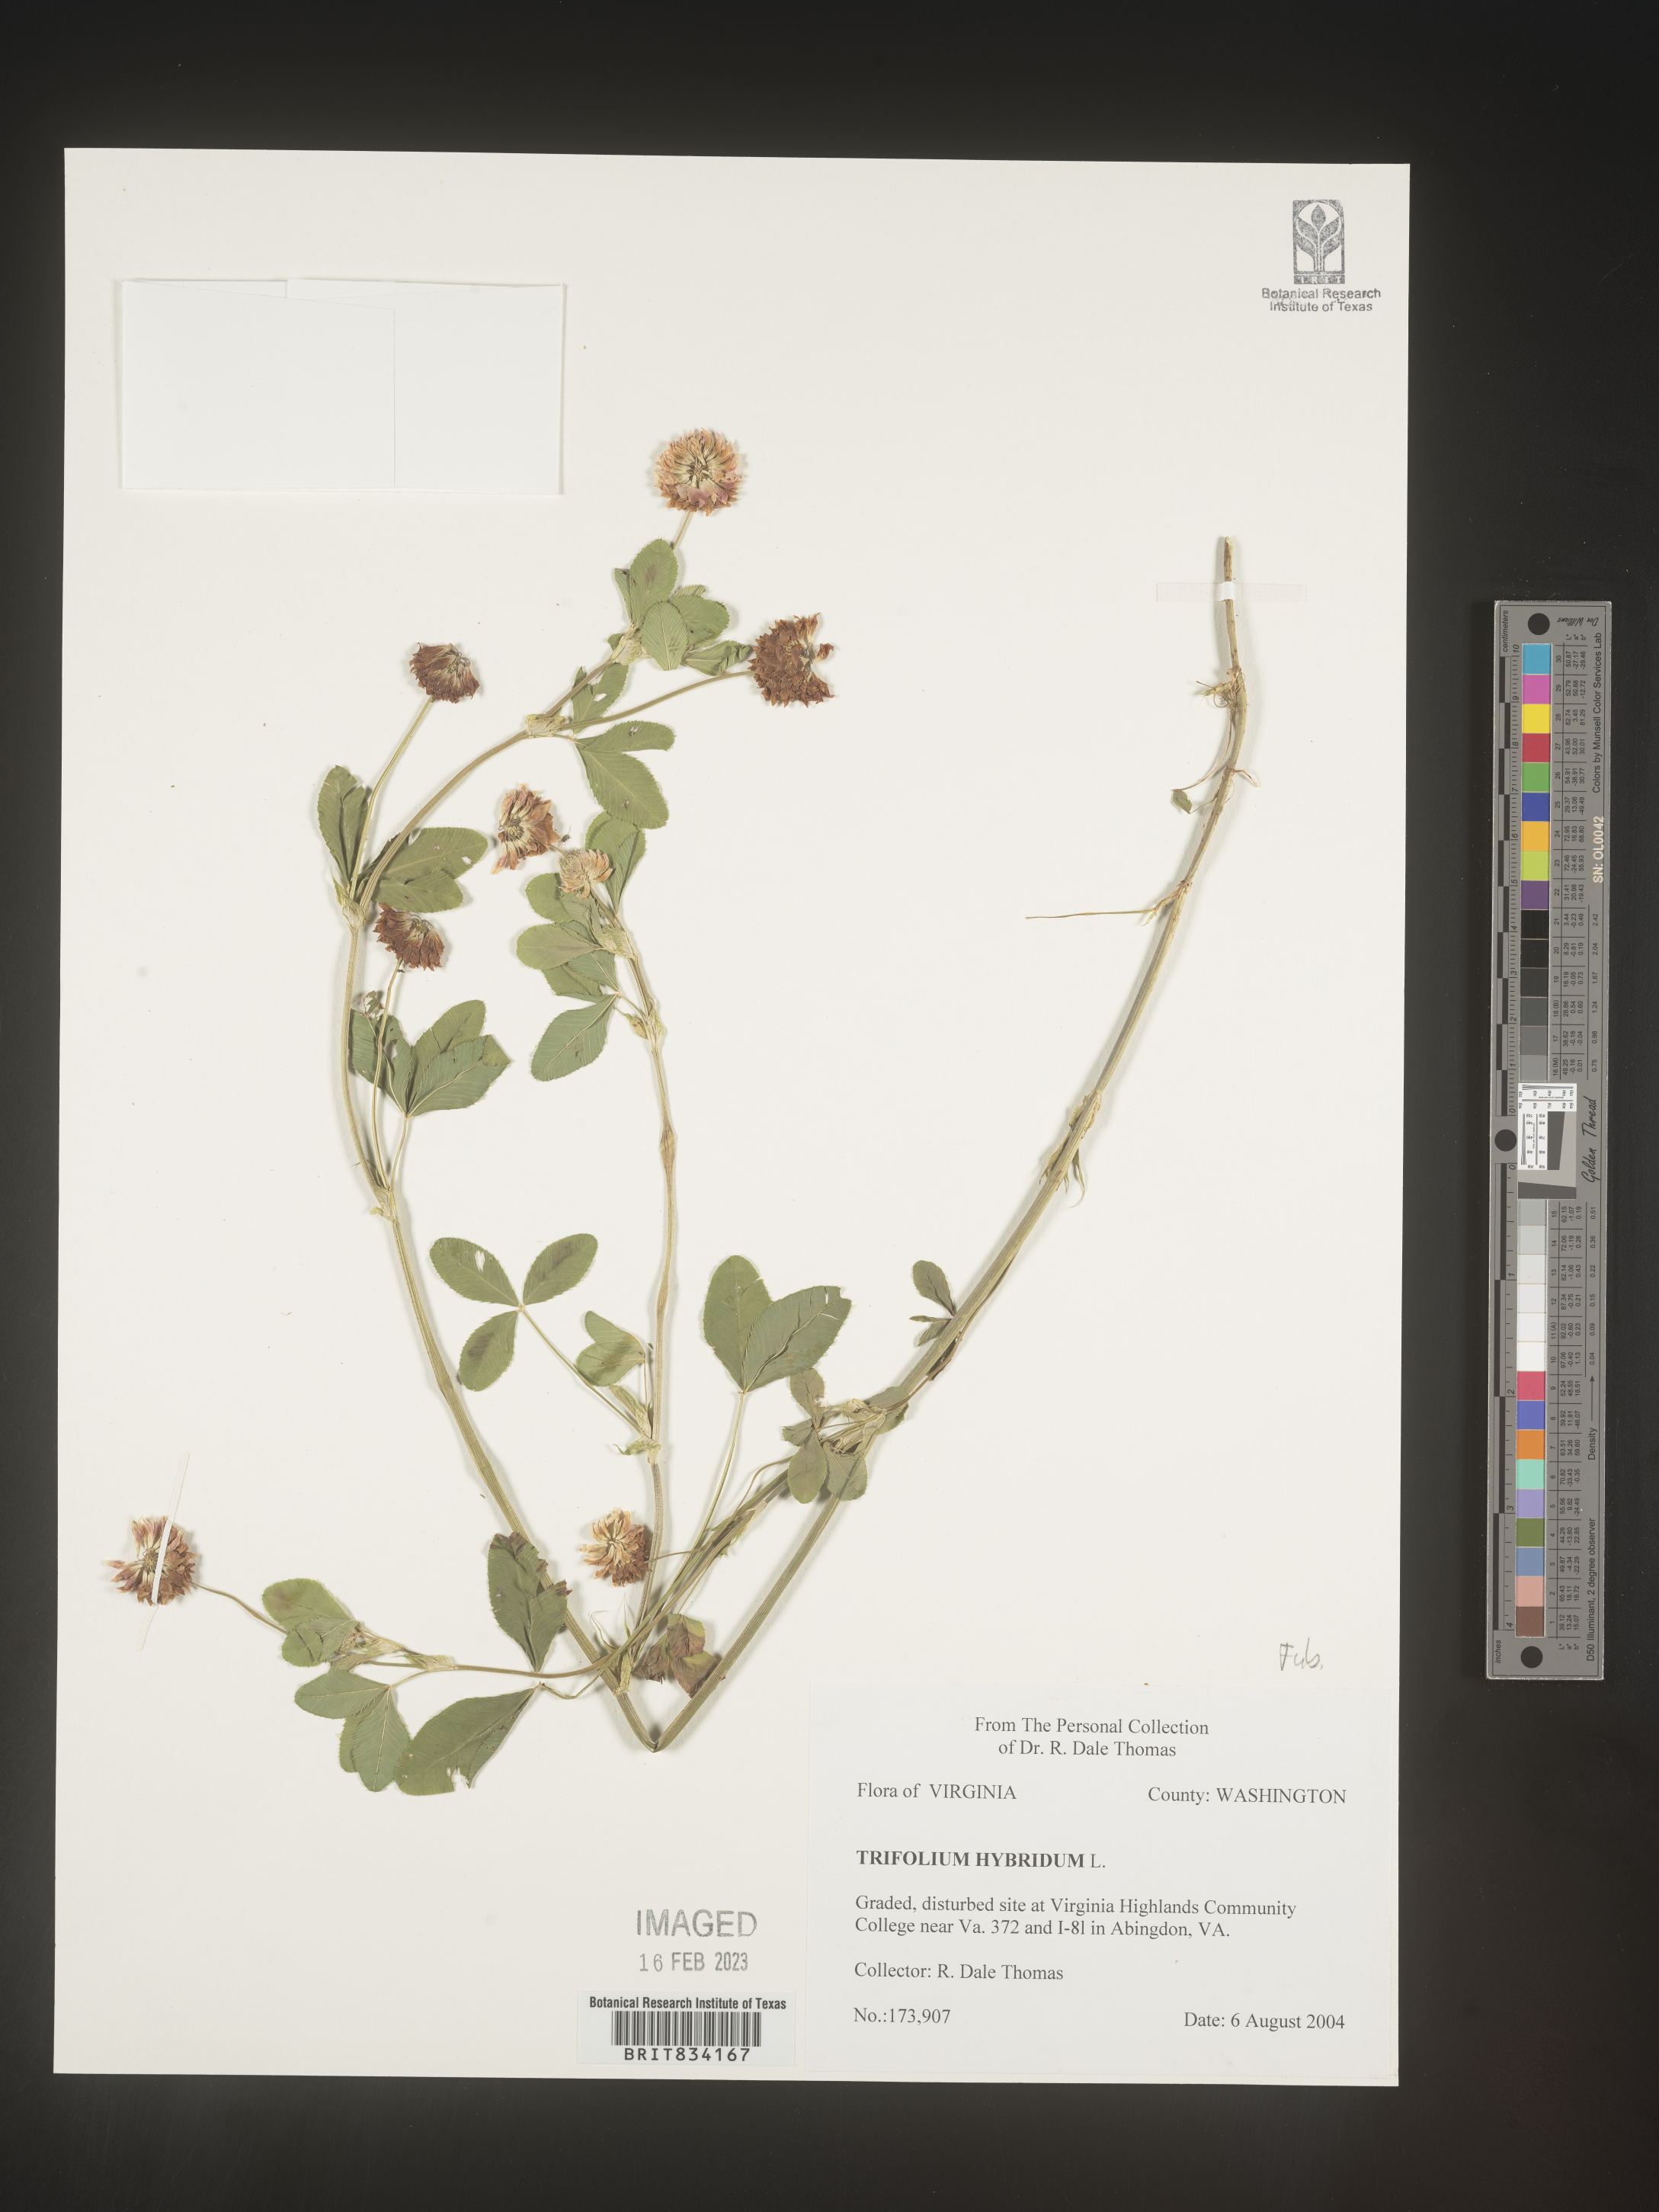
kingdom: Plantae
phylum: Tracheophyta
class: Magnoliopsida
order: Fabales
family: Fabaceae
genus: Trifolium
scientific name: Trifolium hybridum
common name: Alsike clover
